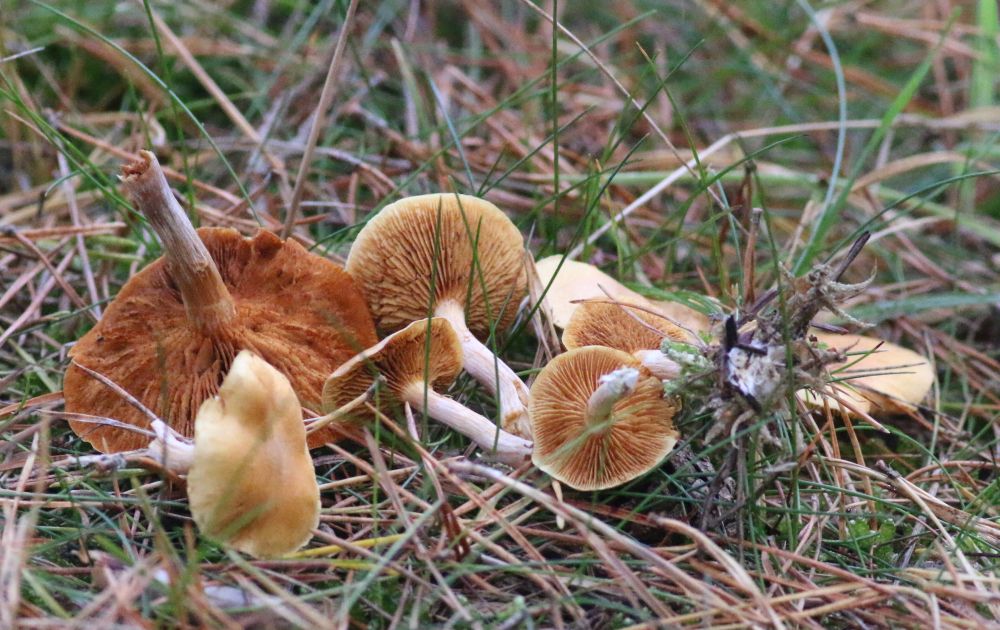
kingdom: Fungi
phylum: Basidiomycota
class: Agaricomycetes
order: Agaricales
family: Hymenogastraceae
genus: Gymnopilus
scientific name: Gymnopilus penetrans
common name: plettet flammehat
